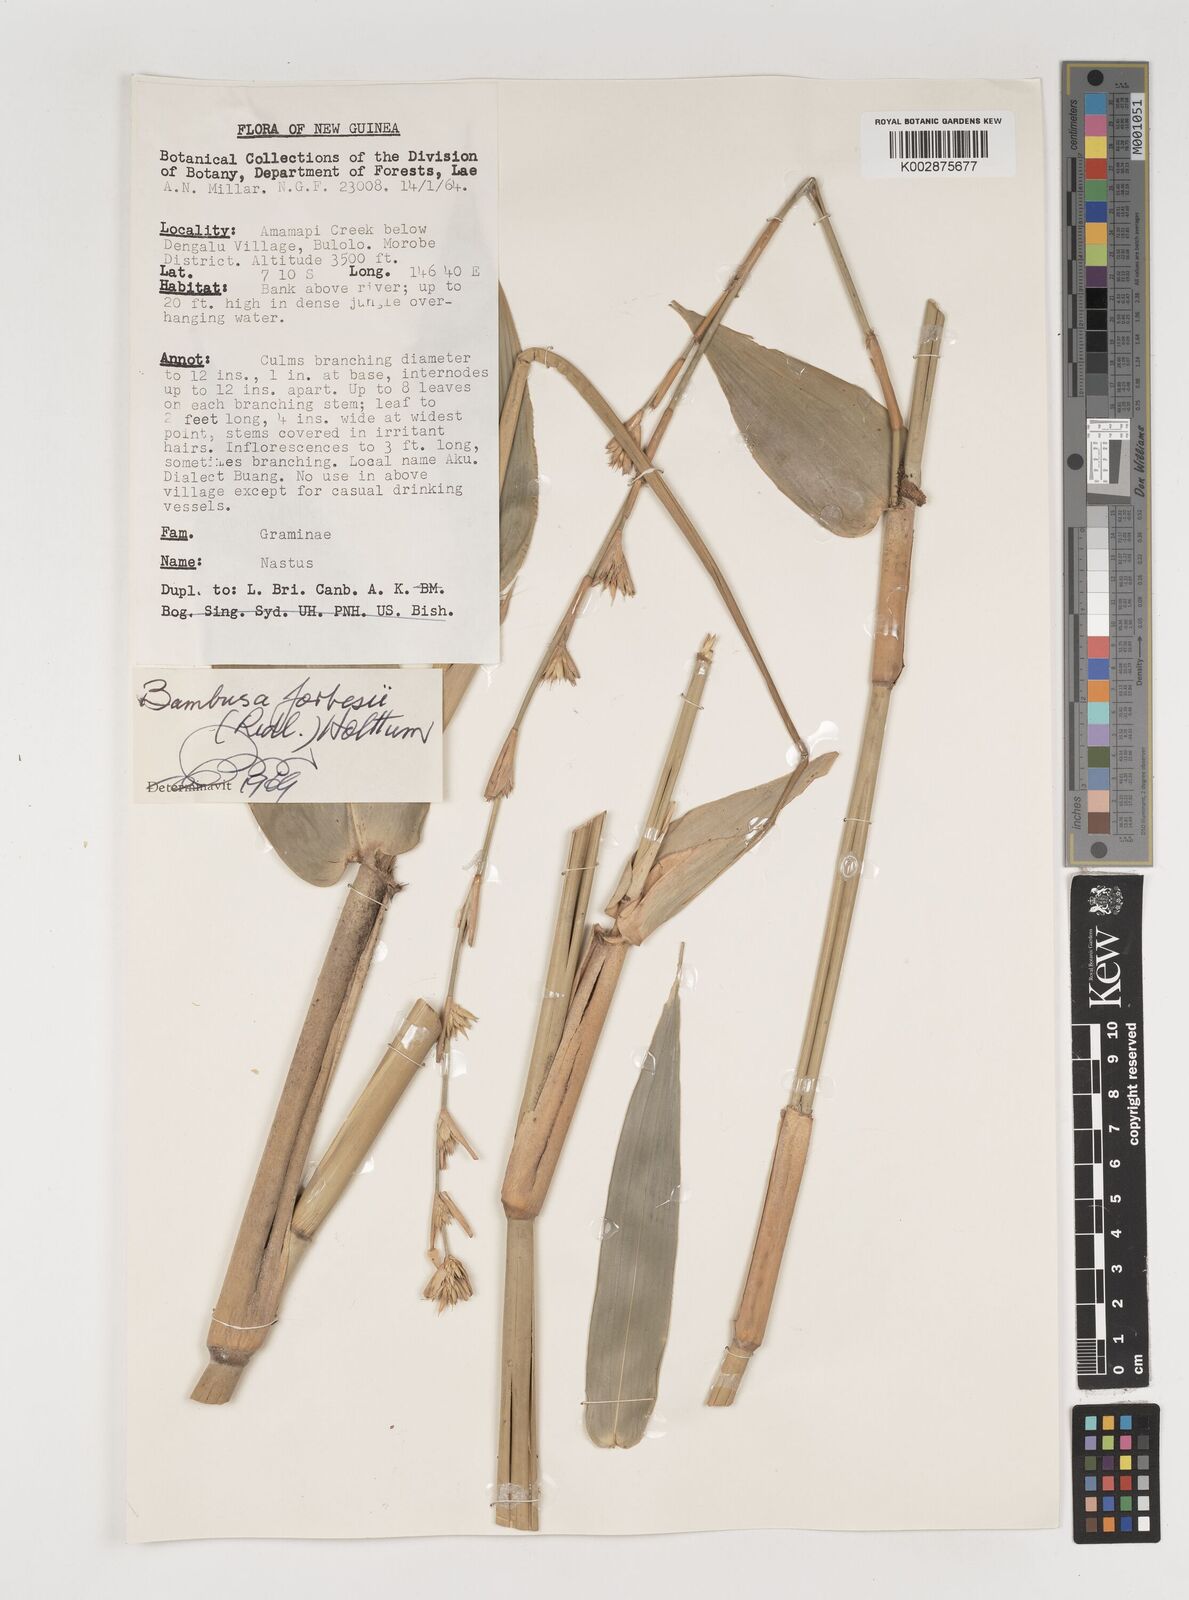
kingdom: Plantae
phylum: Tracheophyta
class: Liliopsida
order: Poales
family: Poaceae
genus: Neololeba
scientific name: Neololeba
